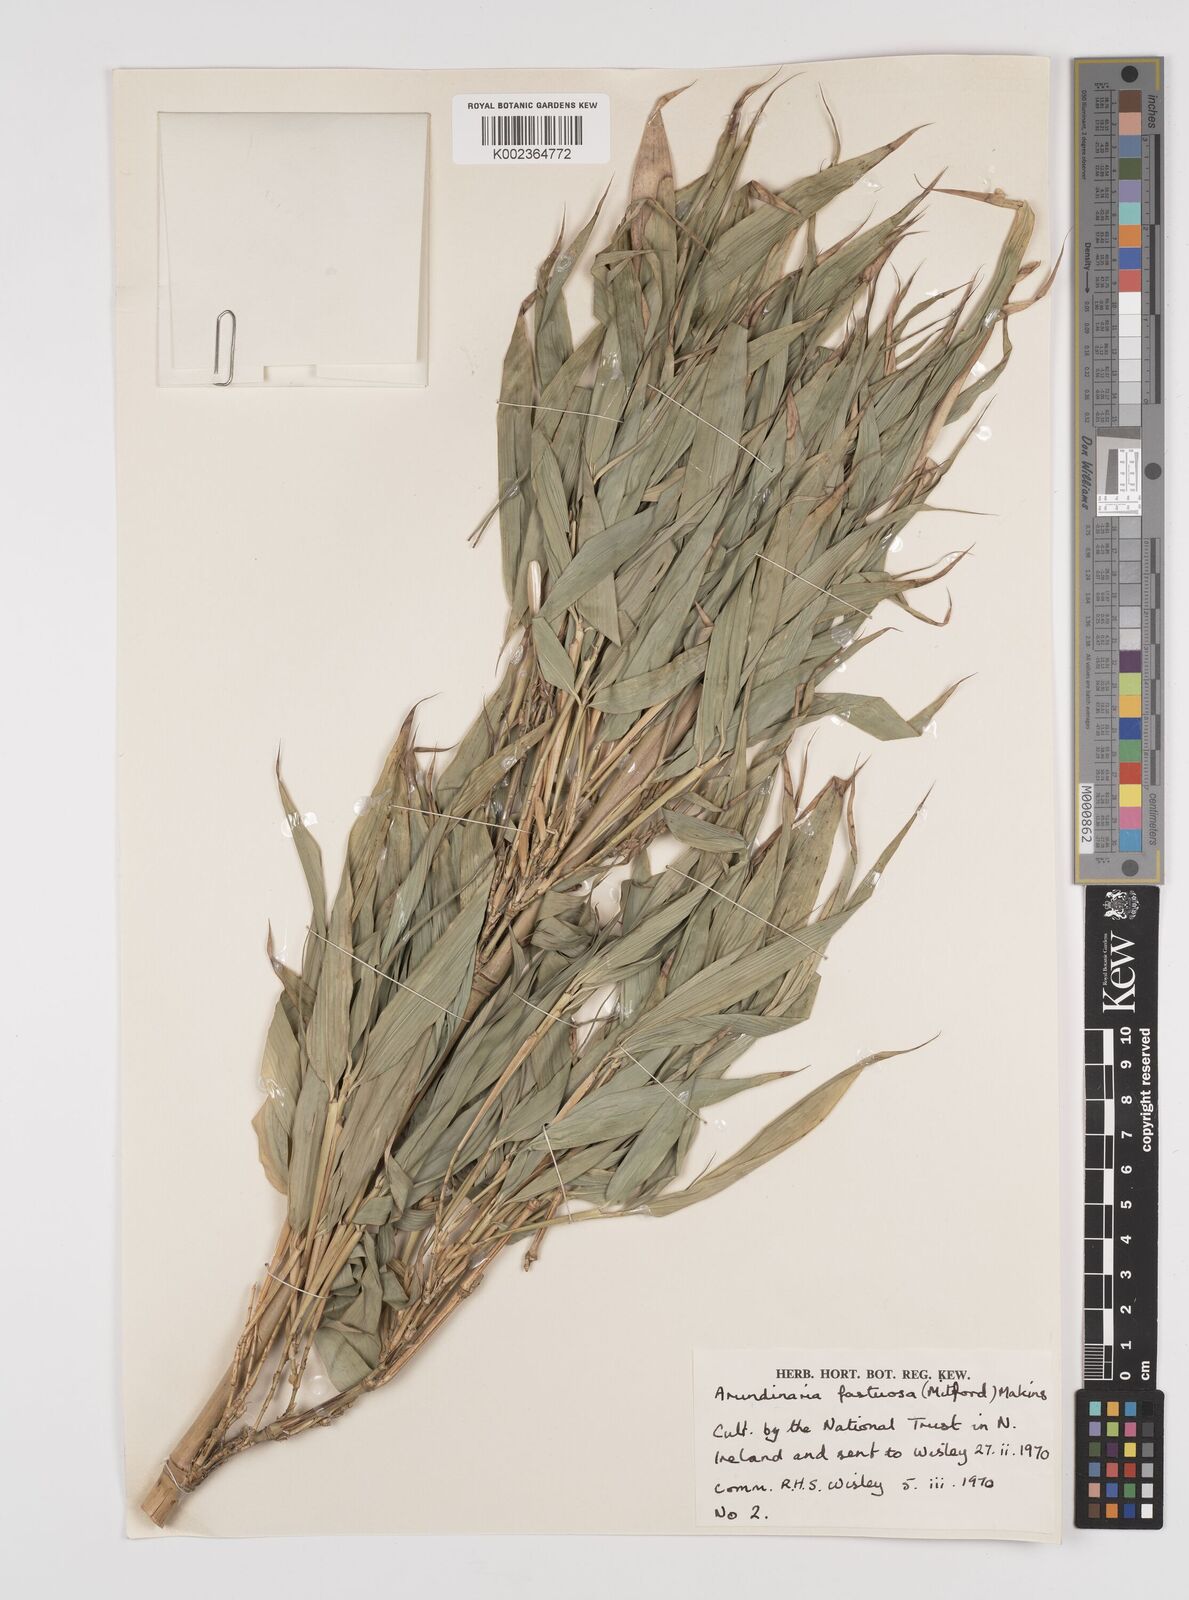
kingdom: Plantae
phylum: Tracheophyta
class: Liliopsida
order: Poales
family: Poaceae
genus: Semiarundinaria
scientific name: Semiarundinaria fastuosa
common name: Narihira bamboo
